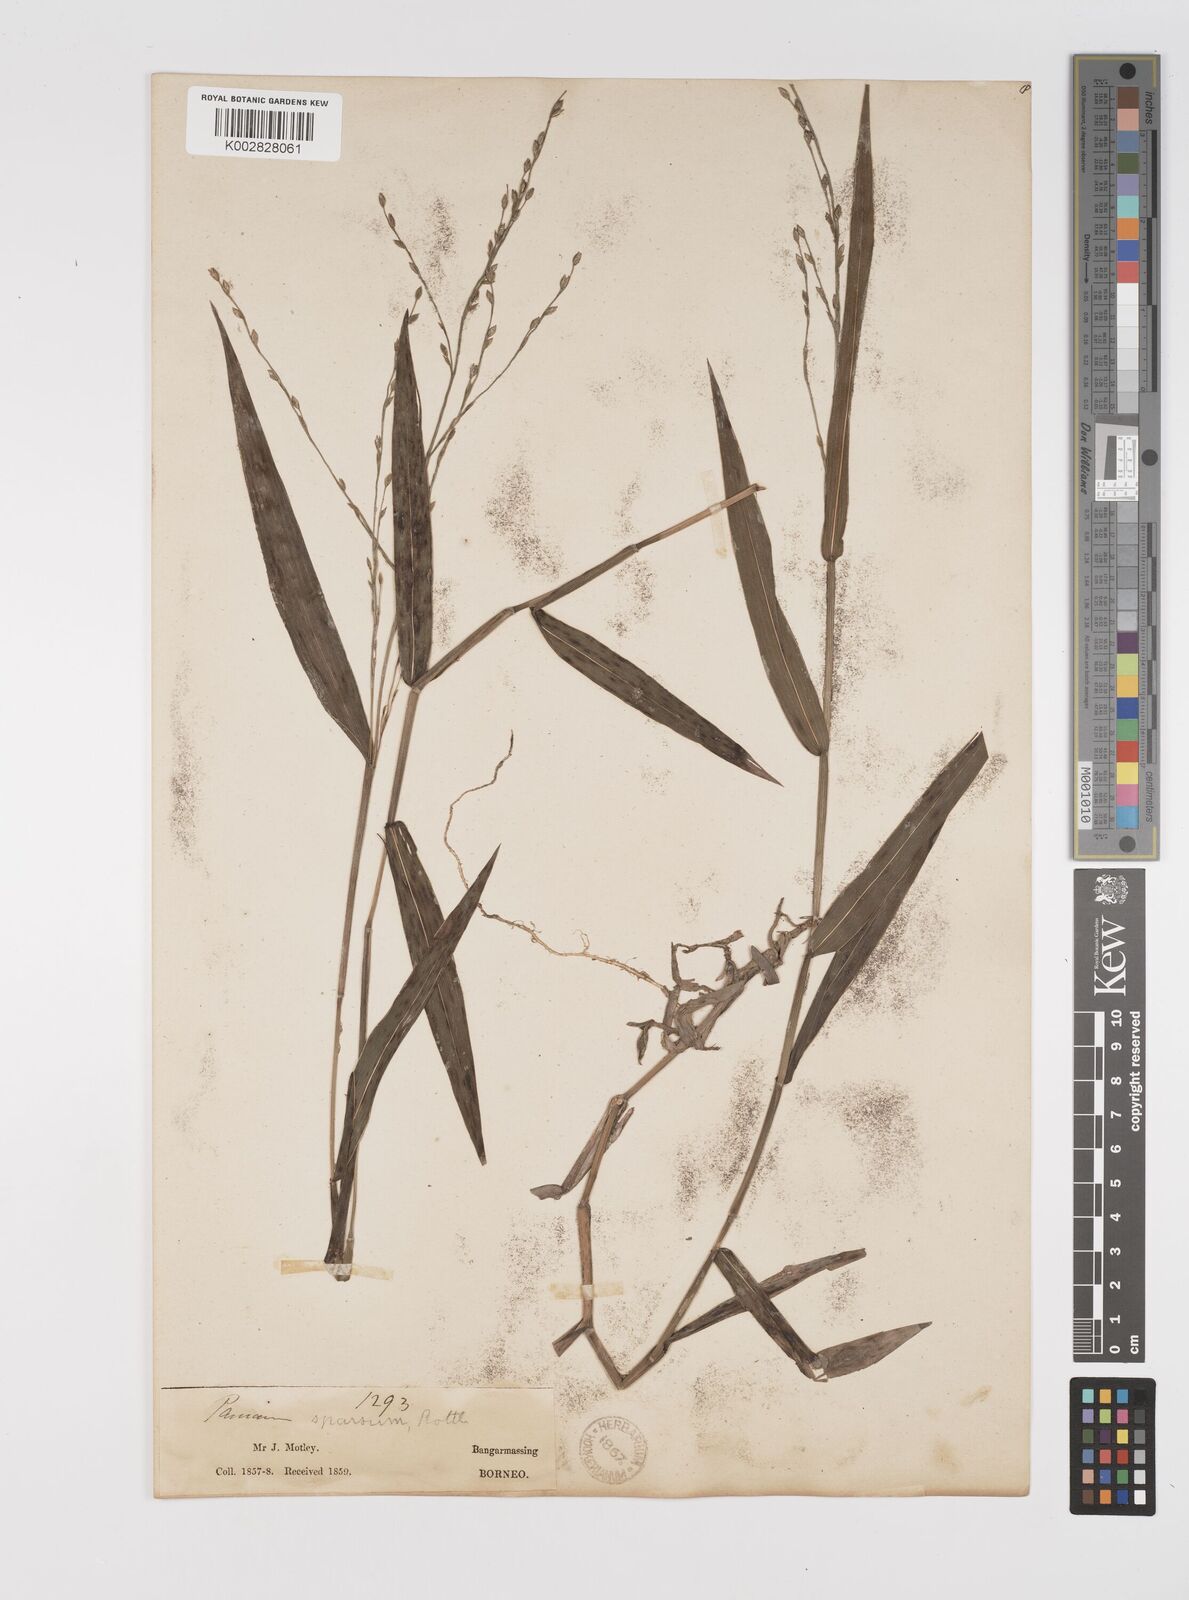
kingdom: Plantae
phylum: Tracheophyta
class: Liliopsida
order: Poales
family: Poaceae
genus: Acroceras
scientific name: Acroceras tonkinense
